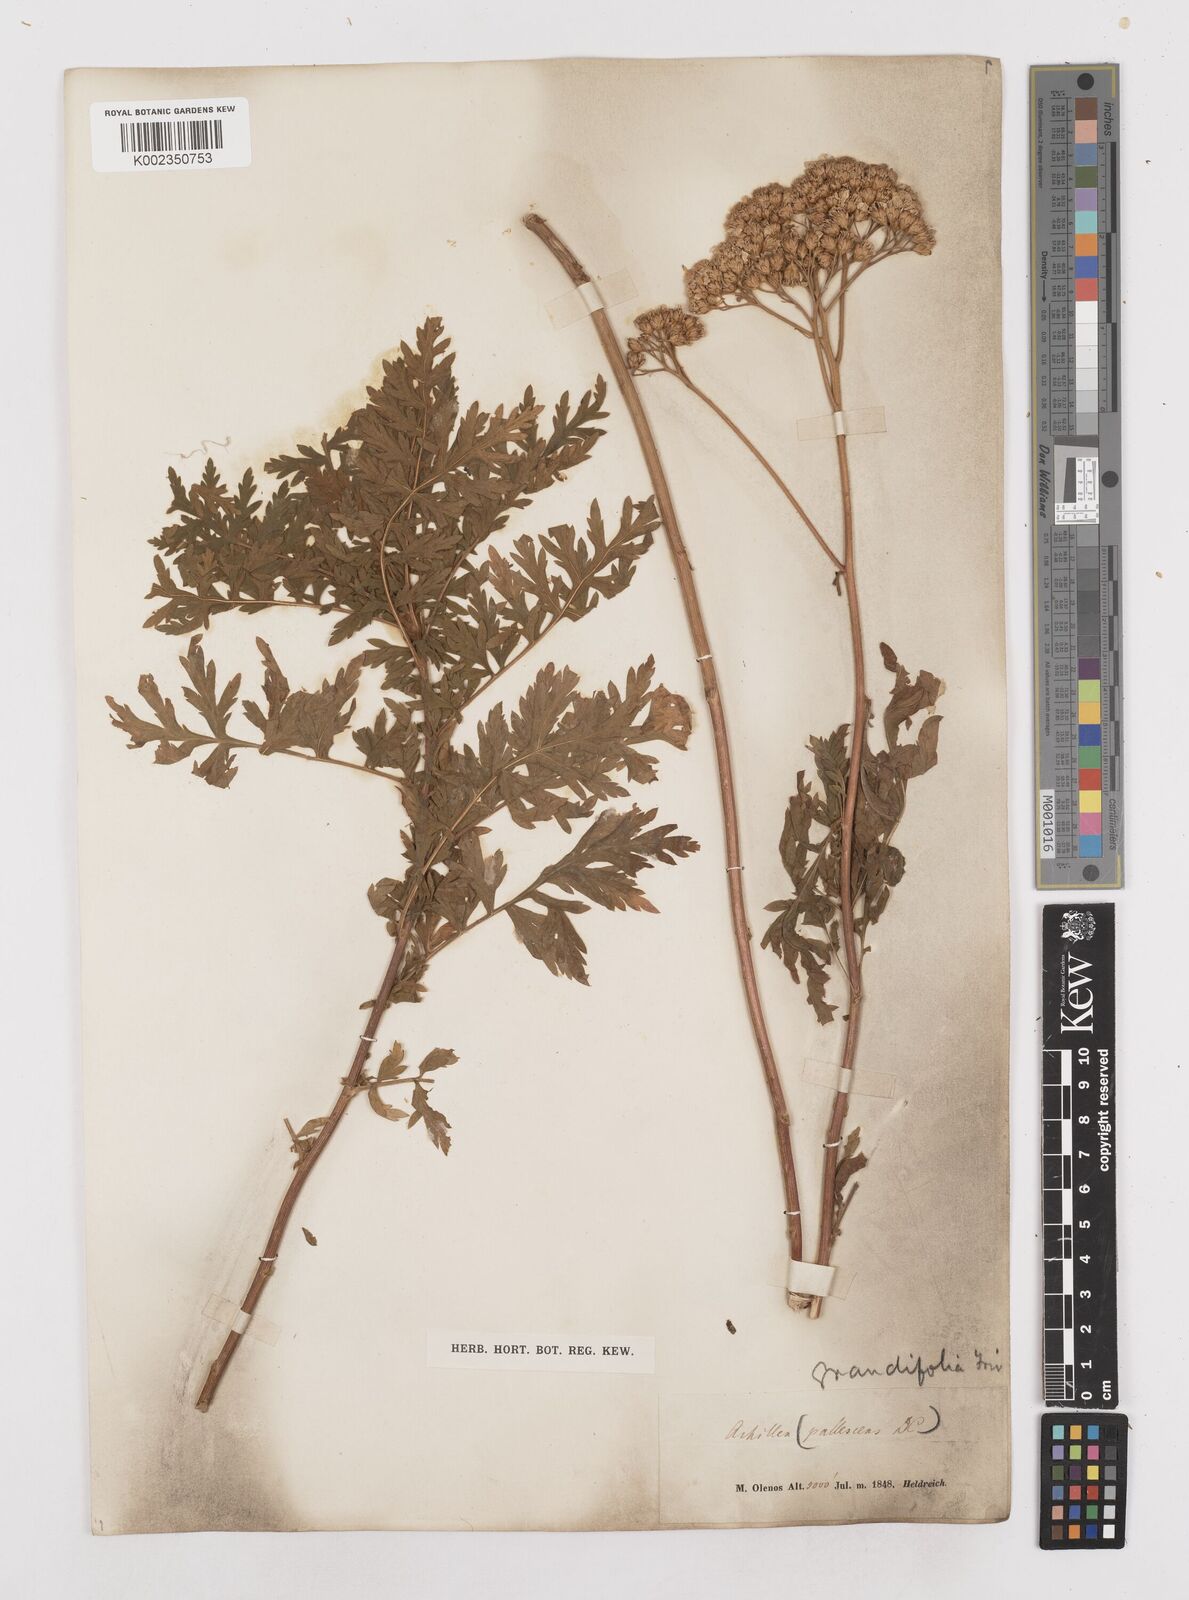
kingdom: Plantae
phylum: Tracheophyta
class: Magnoliopsida
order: Asterales
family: Asteraceae
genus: Achillea
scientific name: Achillea grandifolia
